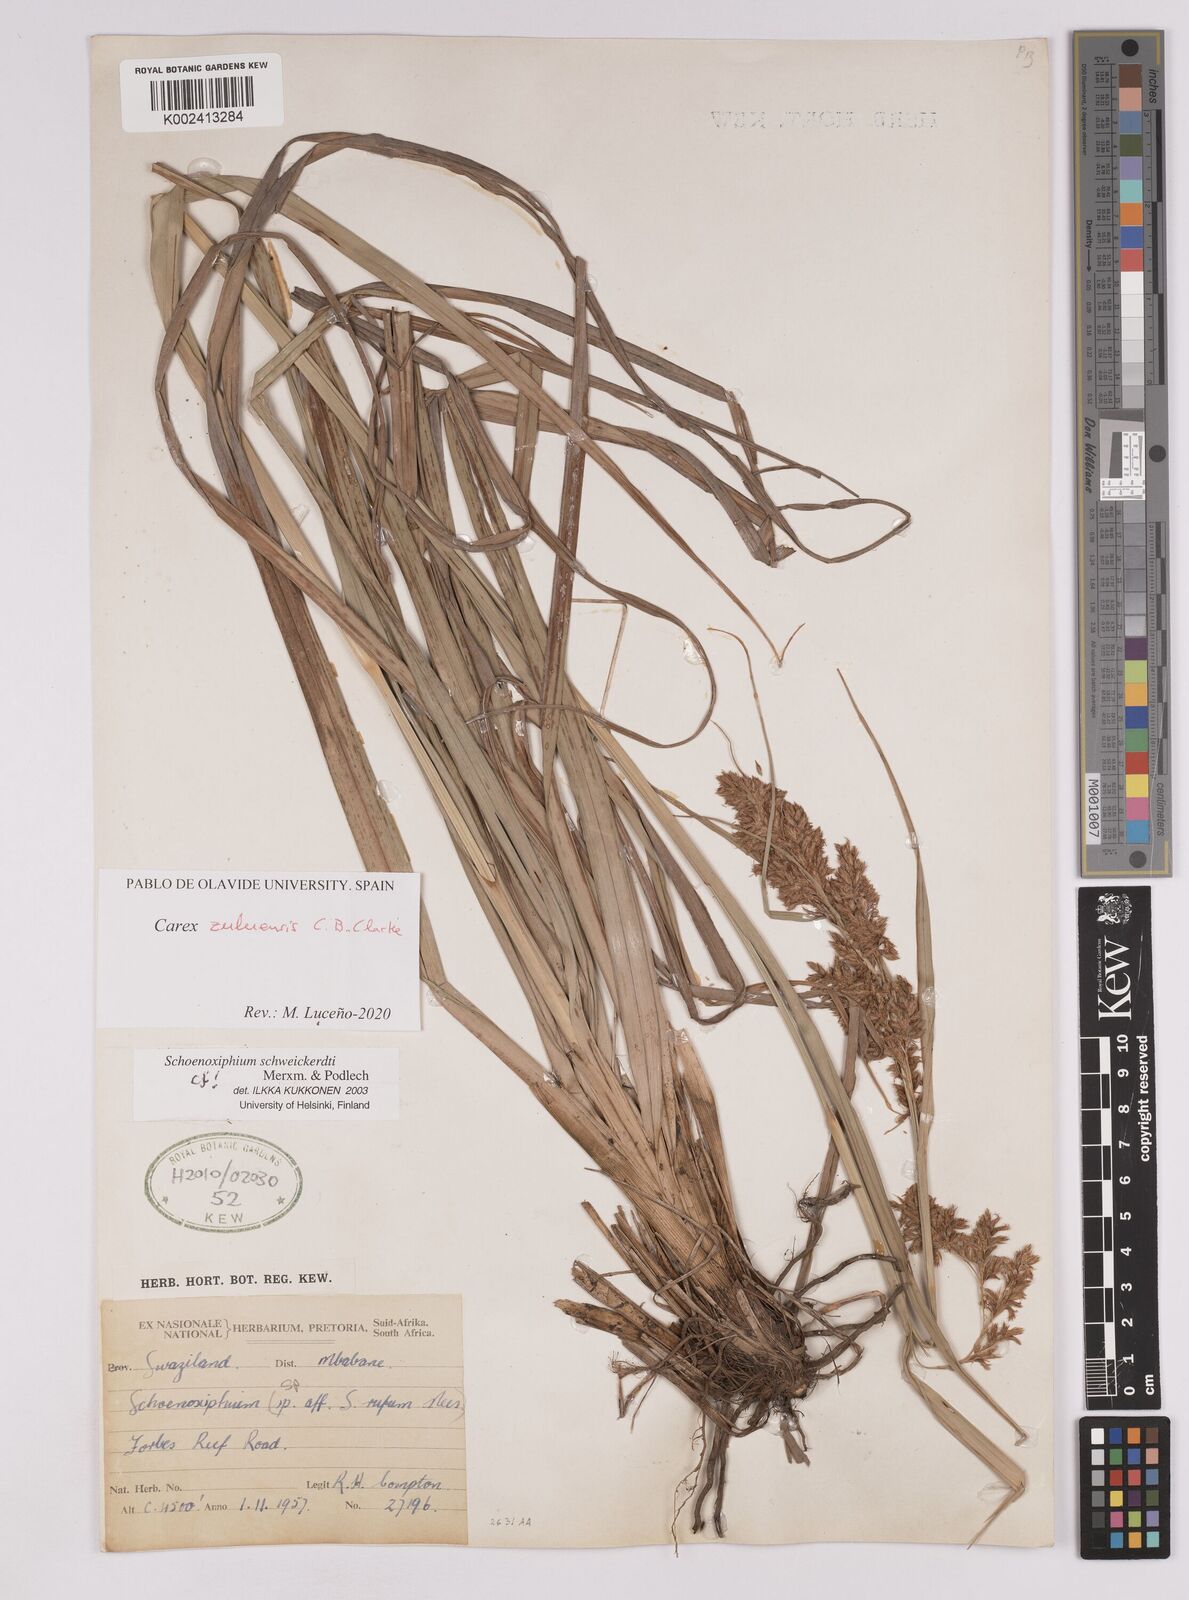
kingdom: Plantae
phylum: Tracheophyta
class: Liliopsida
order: Poales
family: Cyperaceae
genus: Carex
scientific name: Carex schweickerdtii
